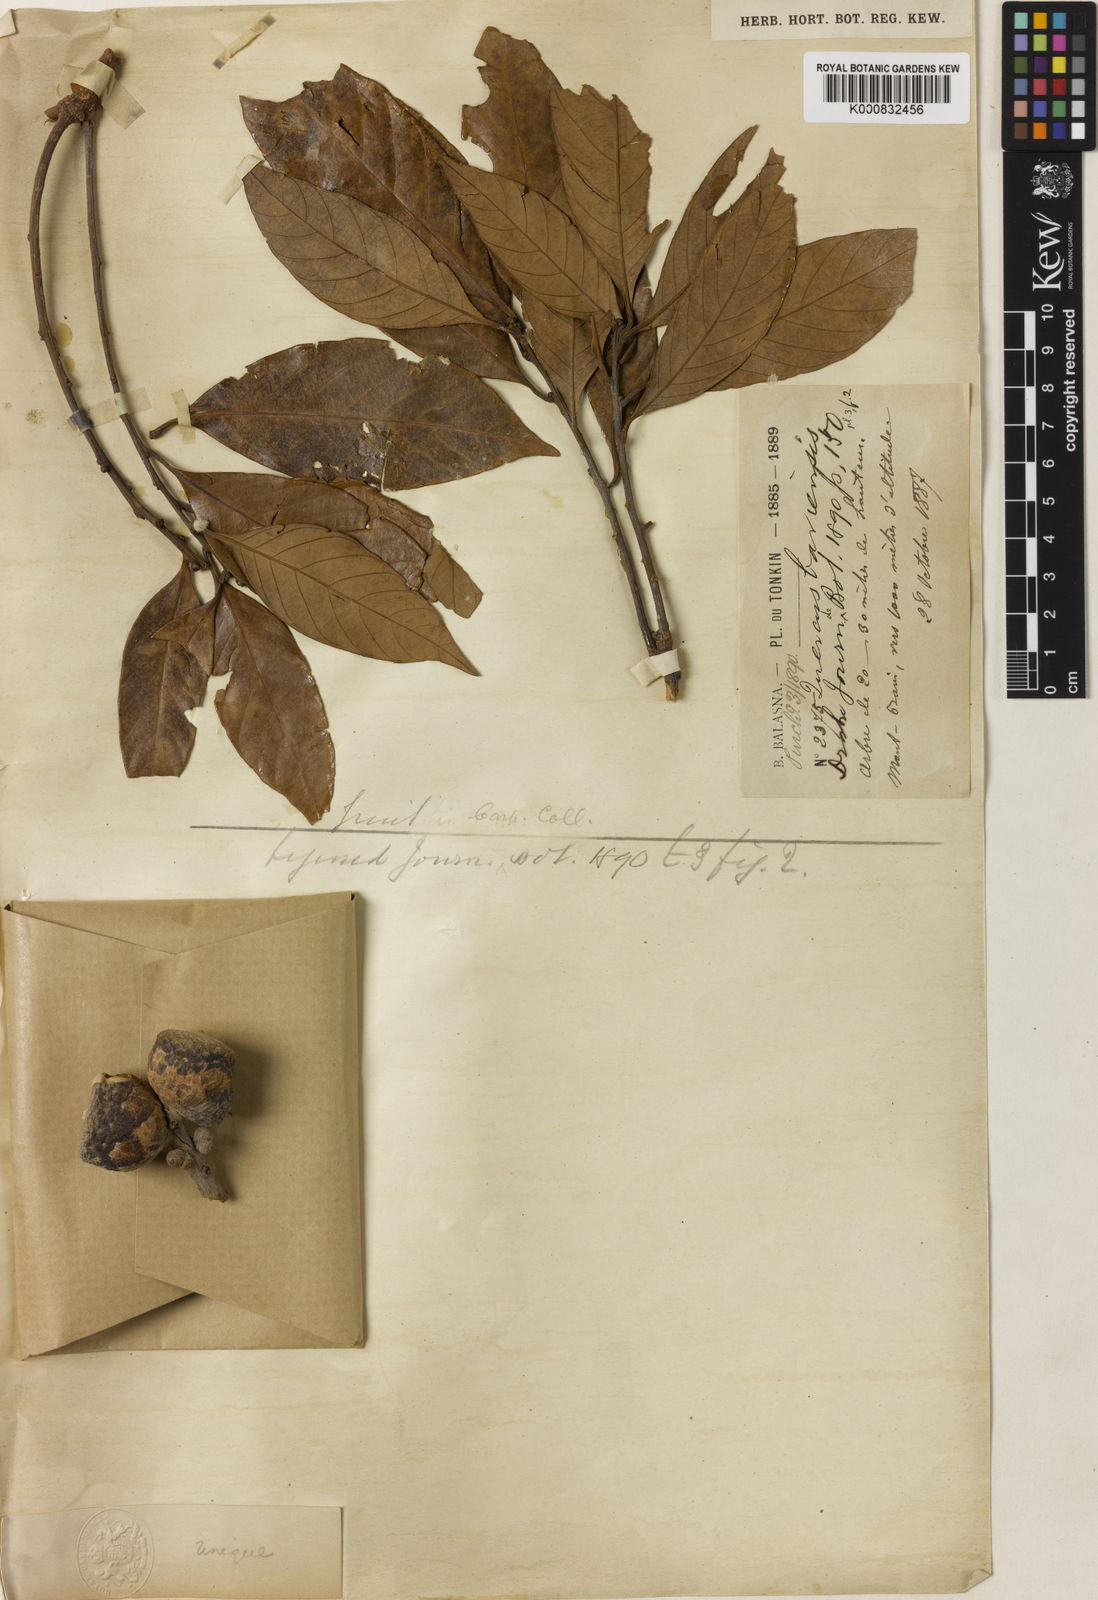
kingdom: Plantae
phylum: Tracheophyta
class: Magnoliopsida
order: Fagales
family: Fagaceae
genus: Lithocarpus
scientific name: Lithocarpus truncatus
